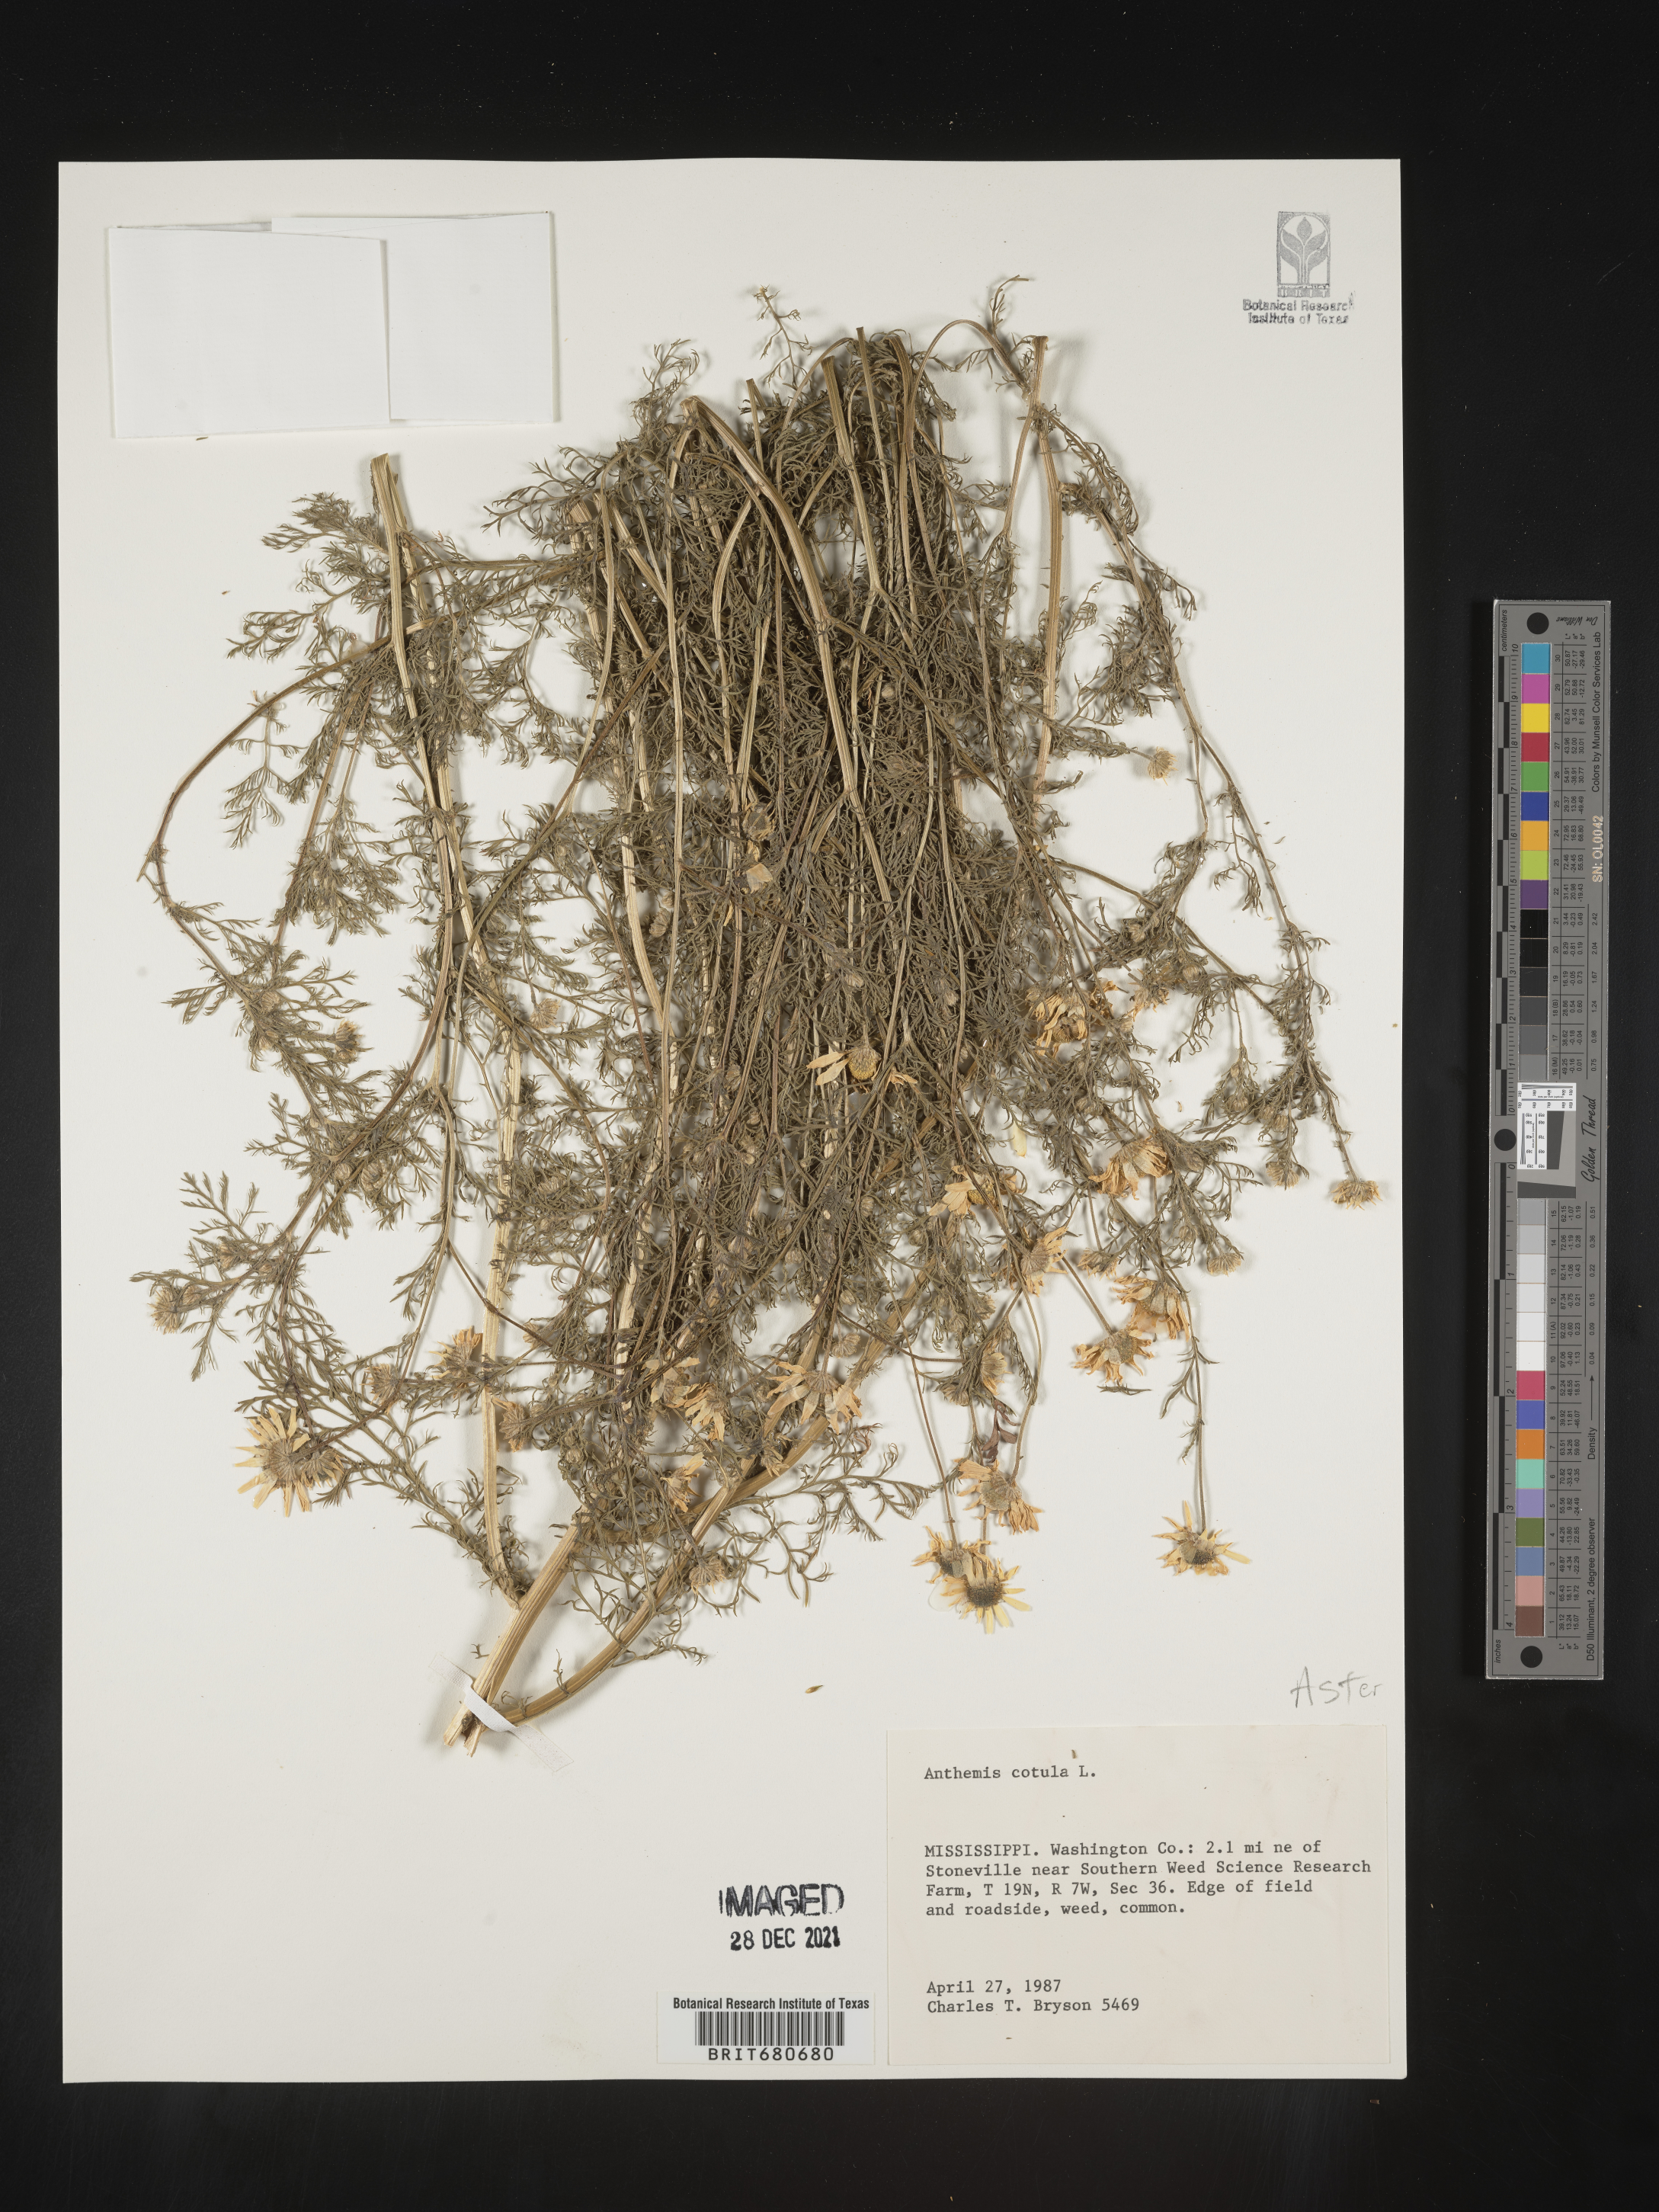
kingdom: Plantae
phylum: Tracheophyta
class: Magnoliopsida
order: Asterales
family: Asteraceae
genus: Anthemis
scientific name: Anthemis cotula
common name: Stinking chamomile
